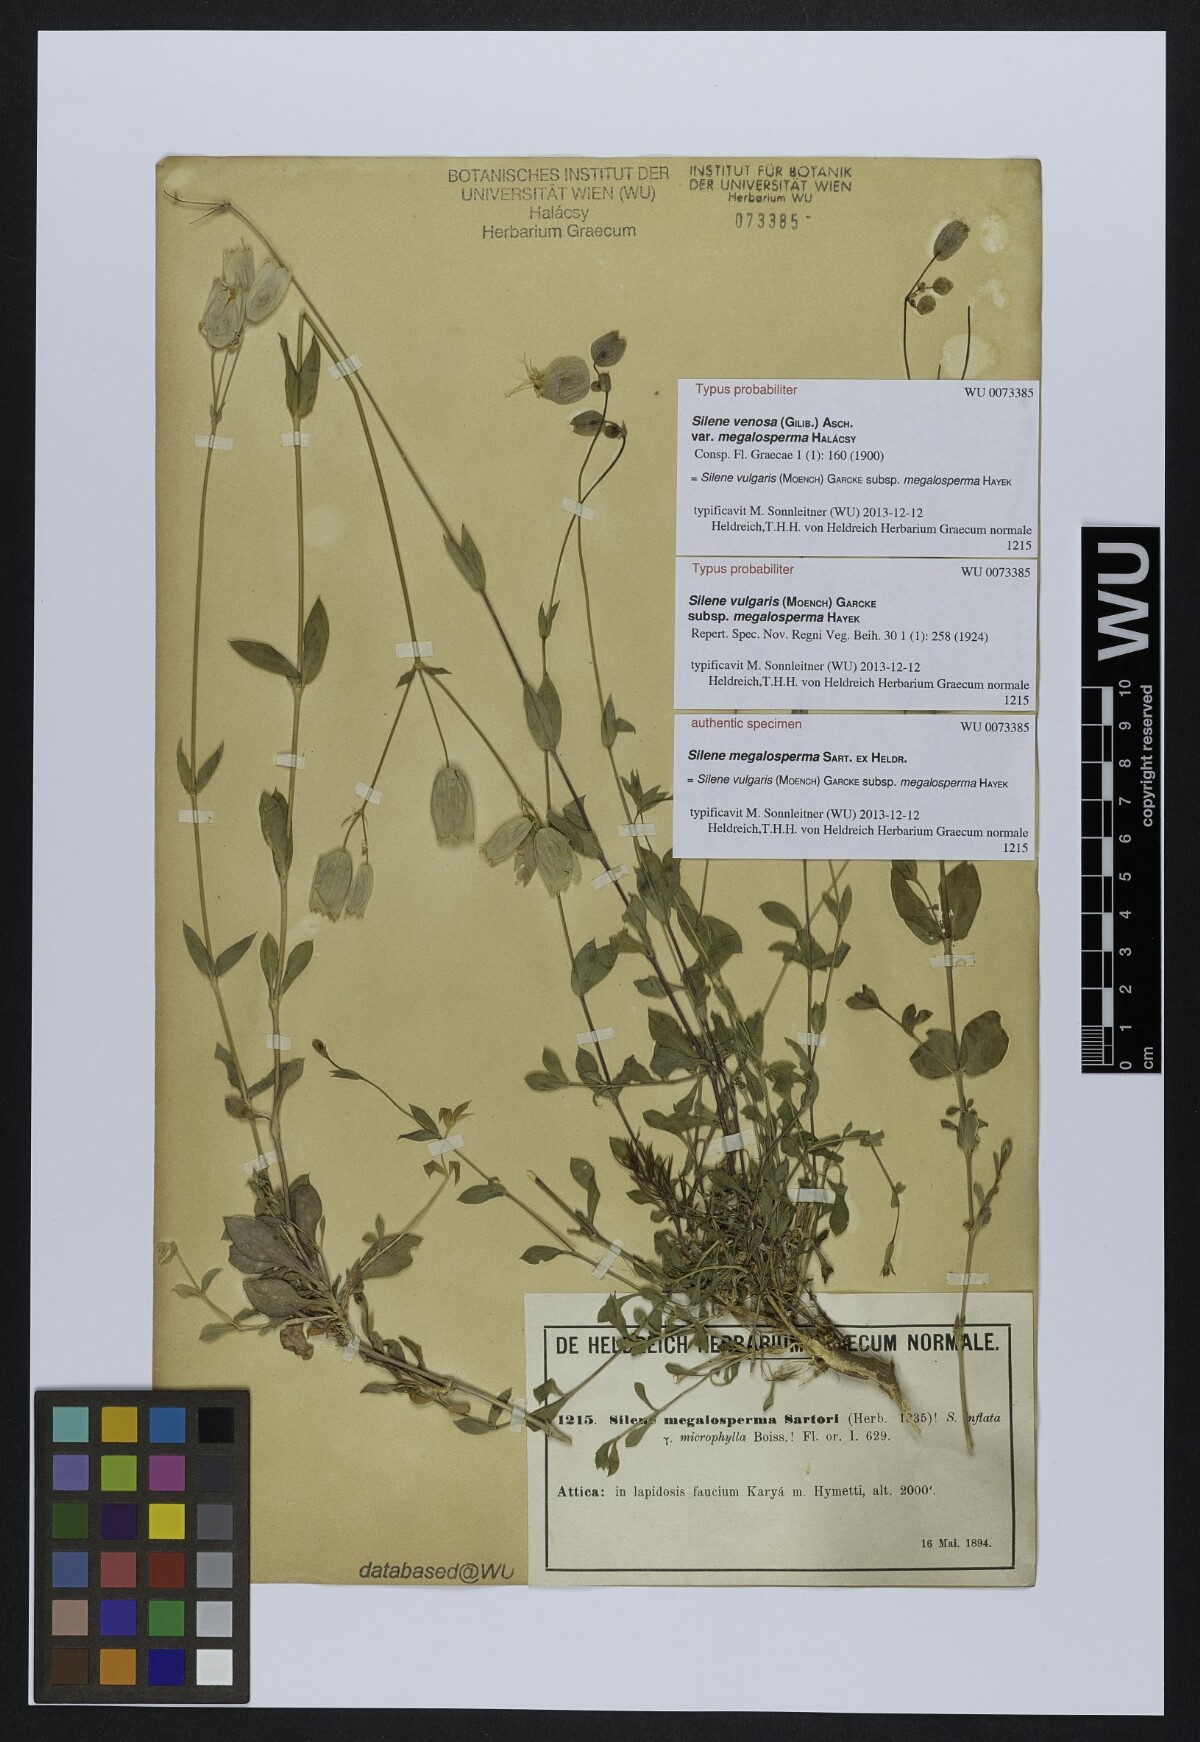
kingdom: Plantae
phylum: Tracheophyta
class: Magnoliopsida
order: Caryophyllales
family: Caryophyllaceae
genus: Silene
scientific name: Silene vulgaris
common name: Bladder campion
